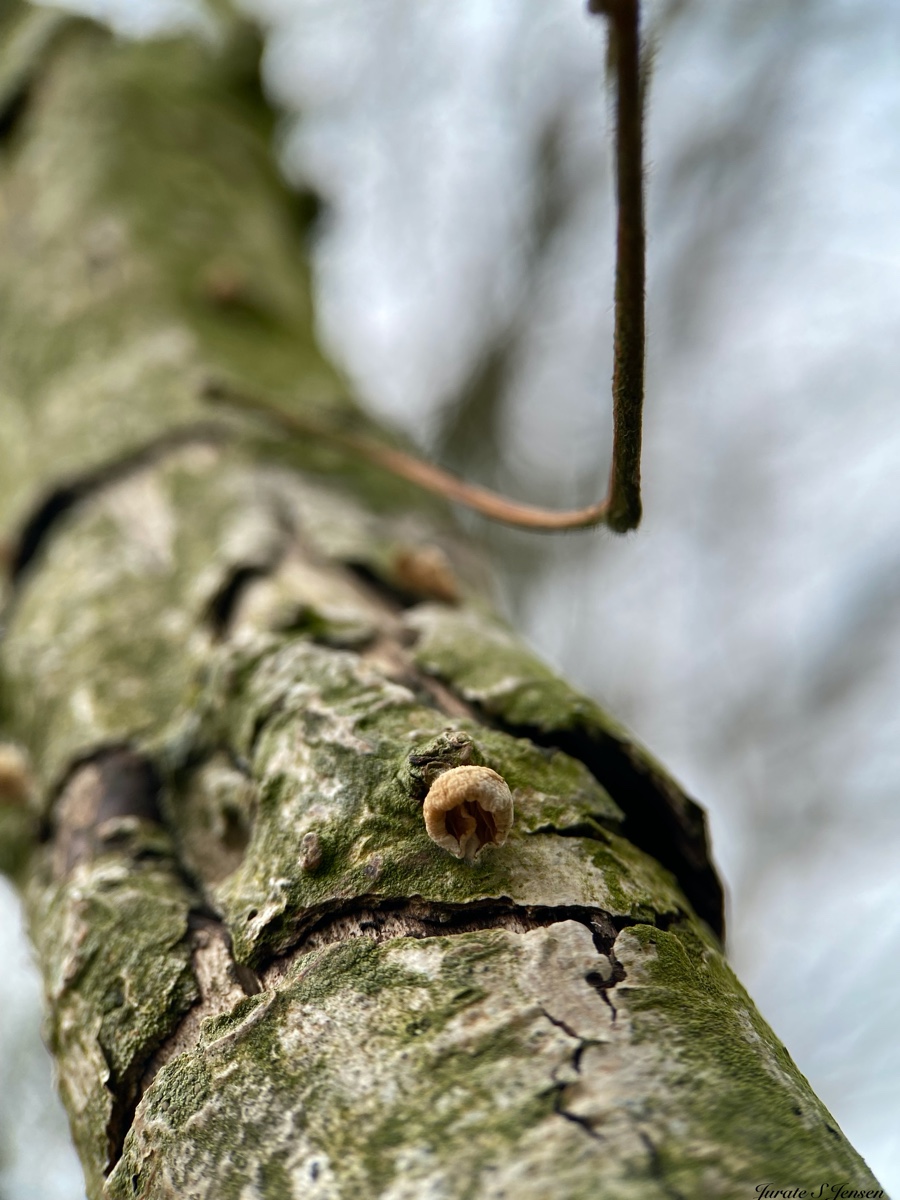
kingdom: Fungi
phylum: Basidiomycota
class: Agaricomycetes
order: Agaricales
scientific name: Agaricales
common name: champignonordenen
